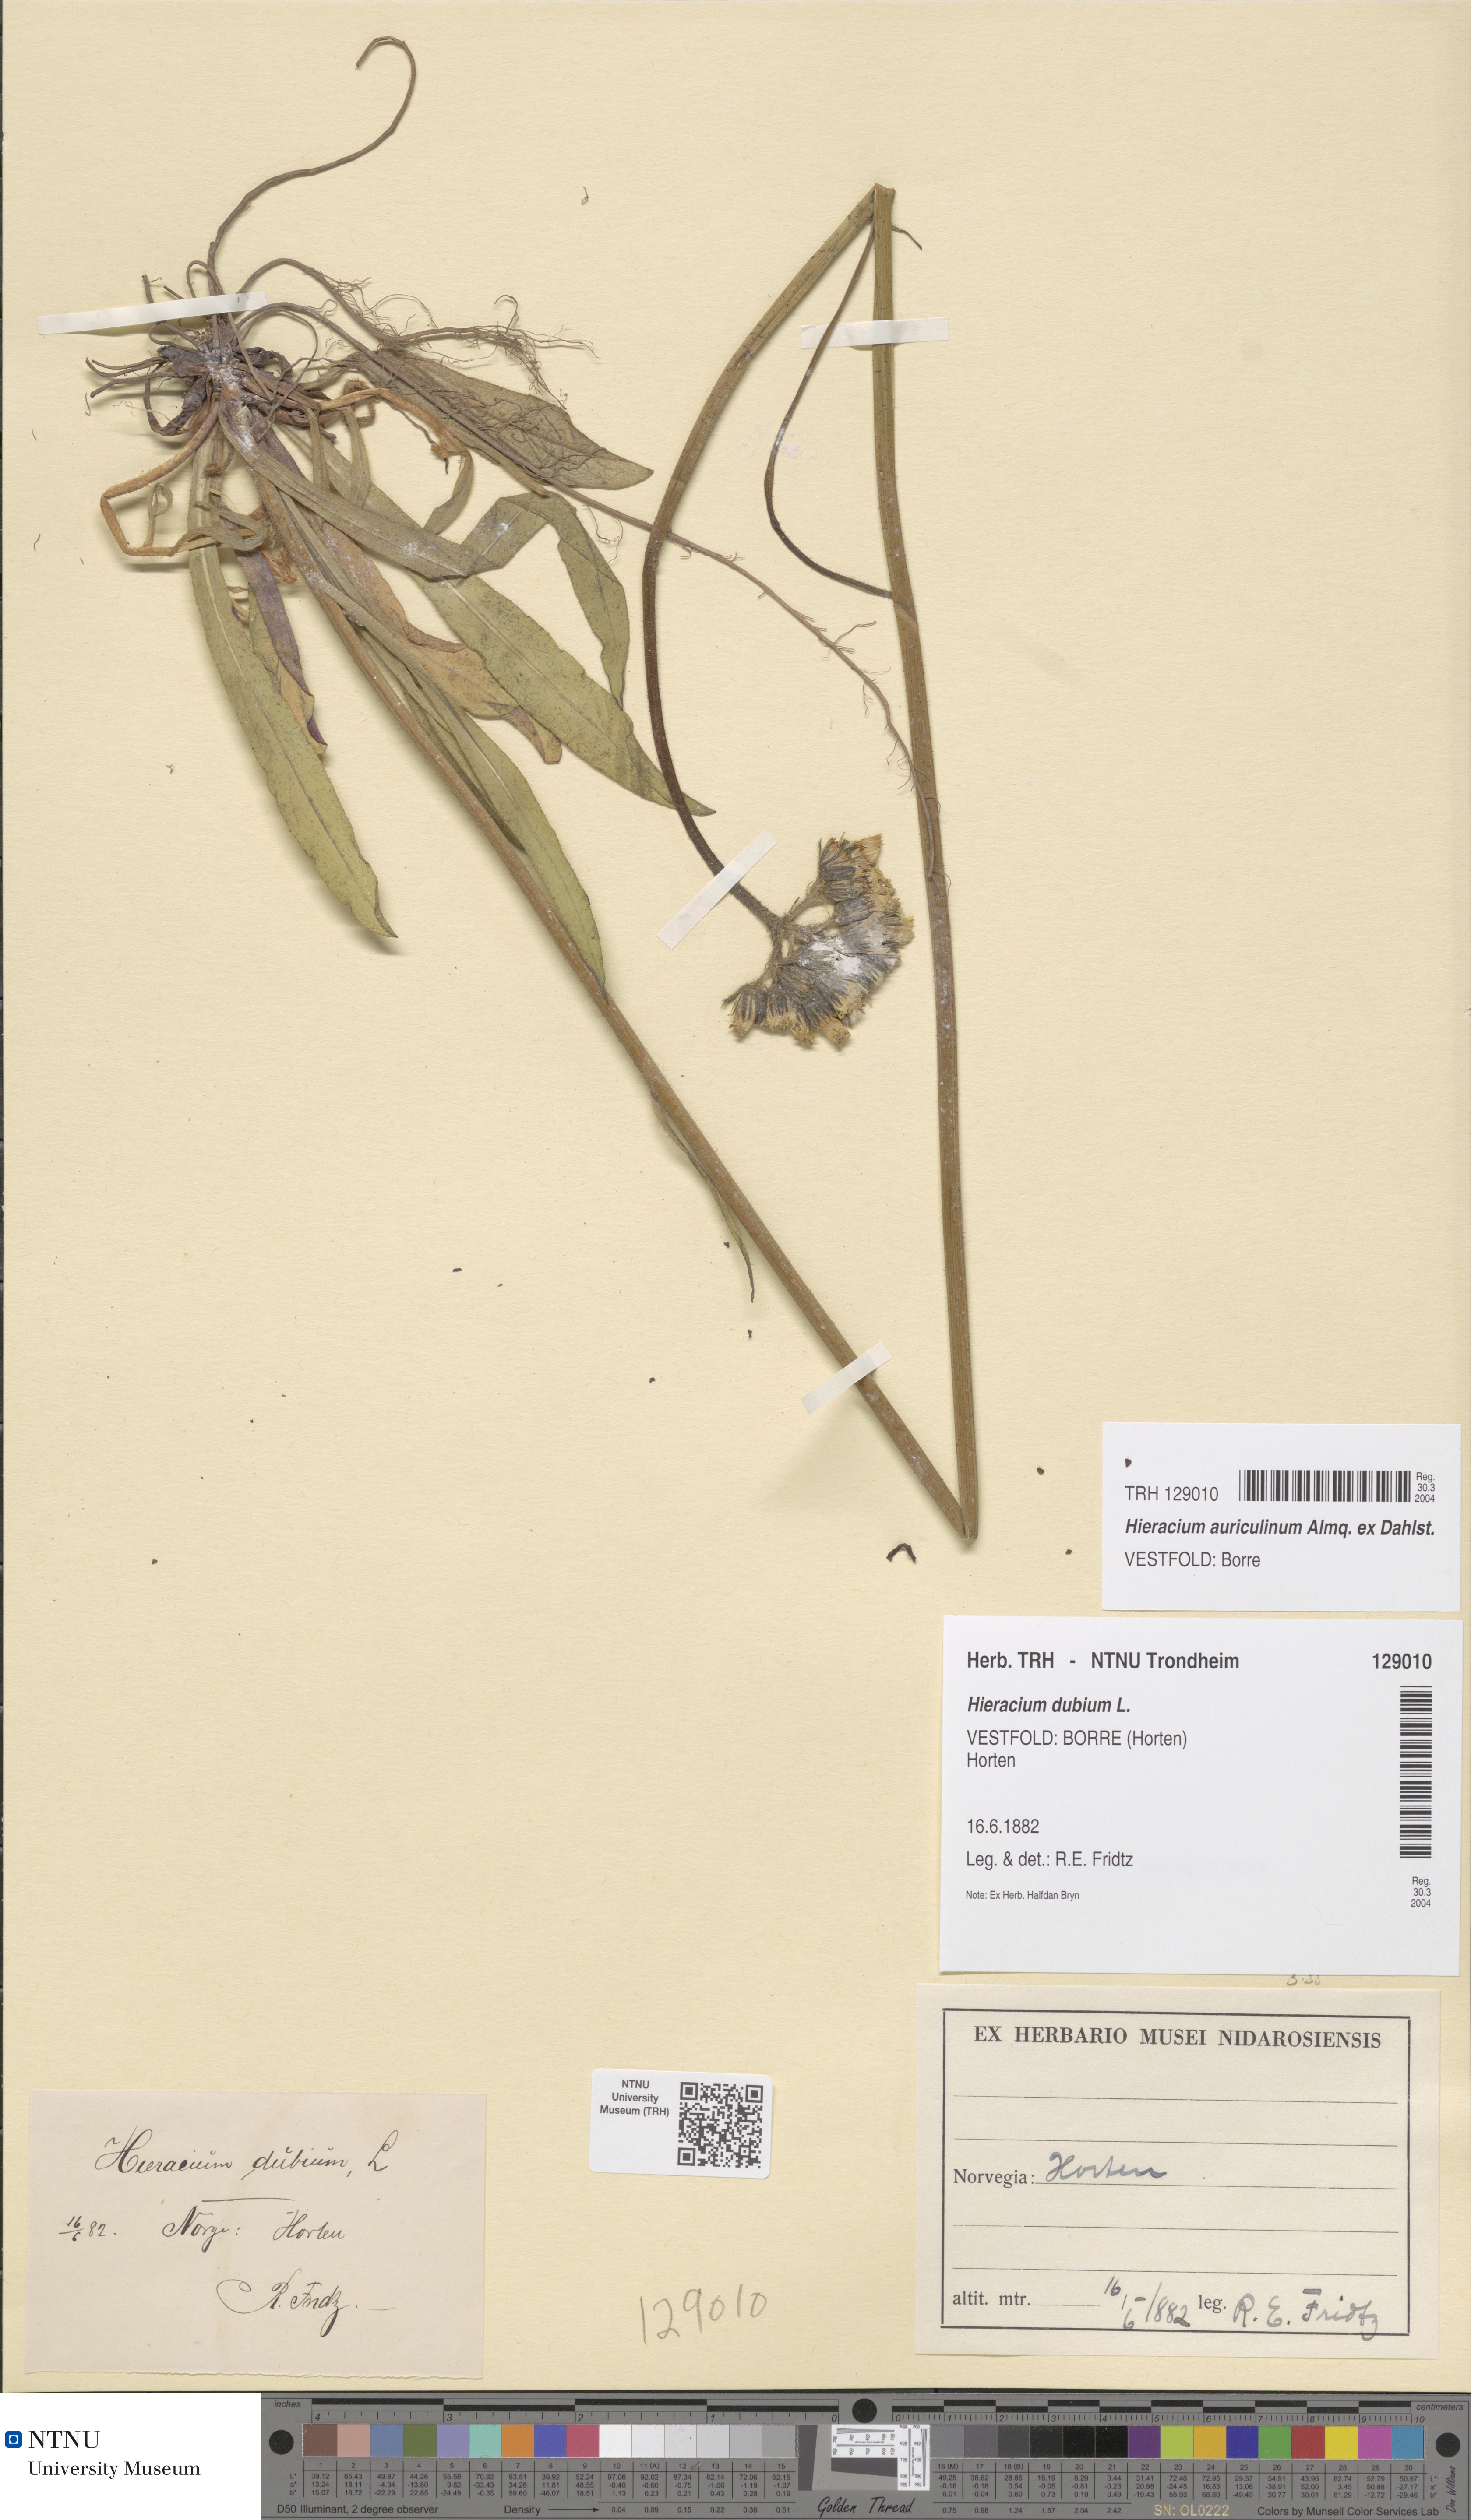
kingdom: Plantae
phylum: Tracheophyta
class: Magnoliopsida
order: Asterales
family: Asteraceae
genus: Pilosella
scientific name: Pilosella dubia
